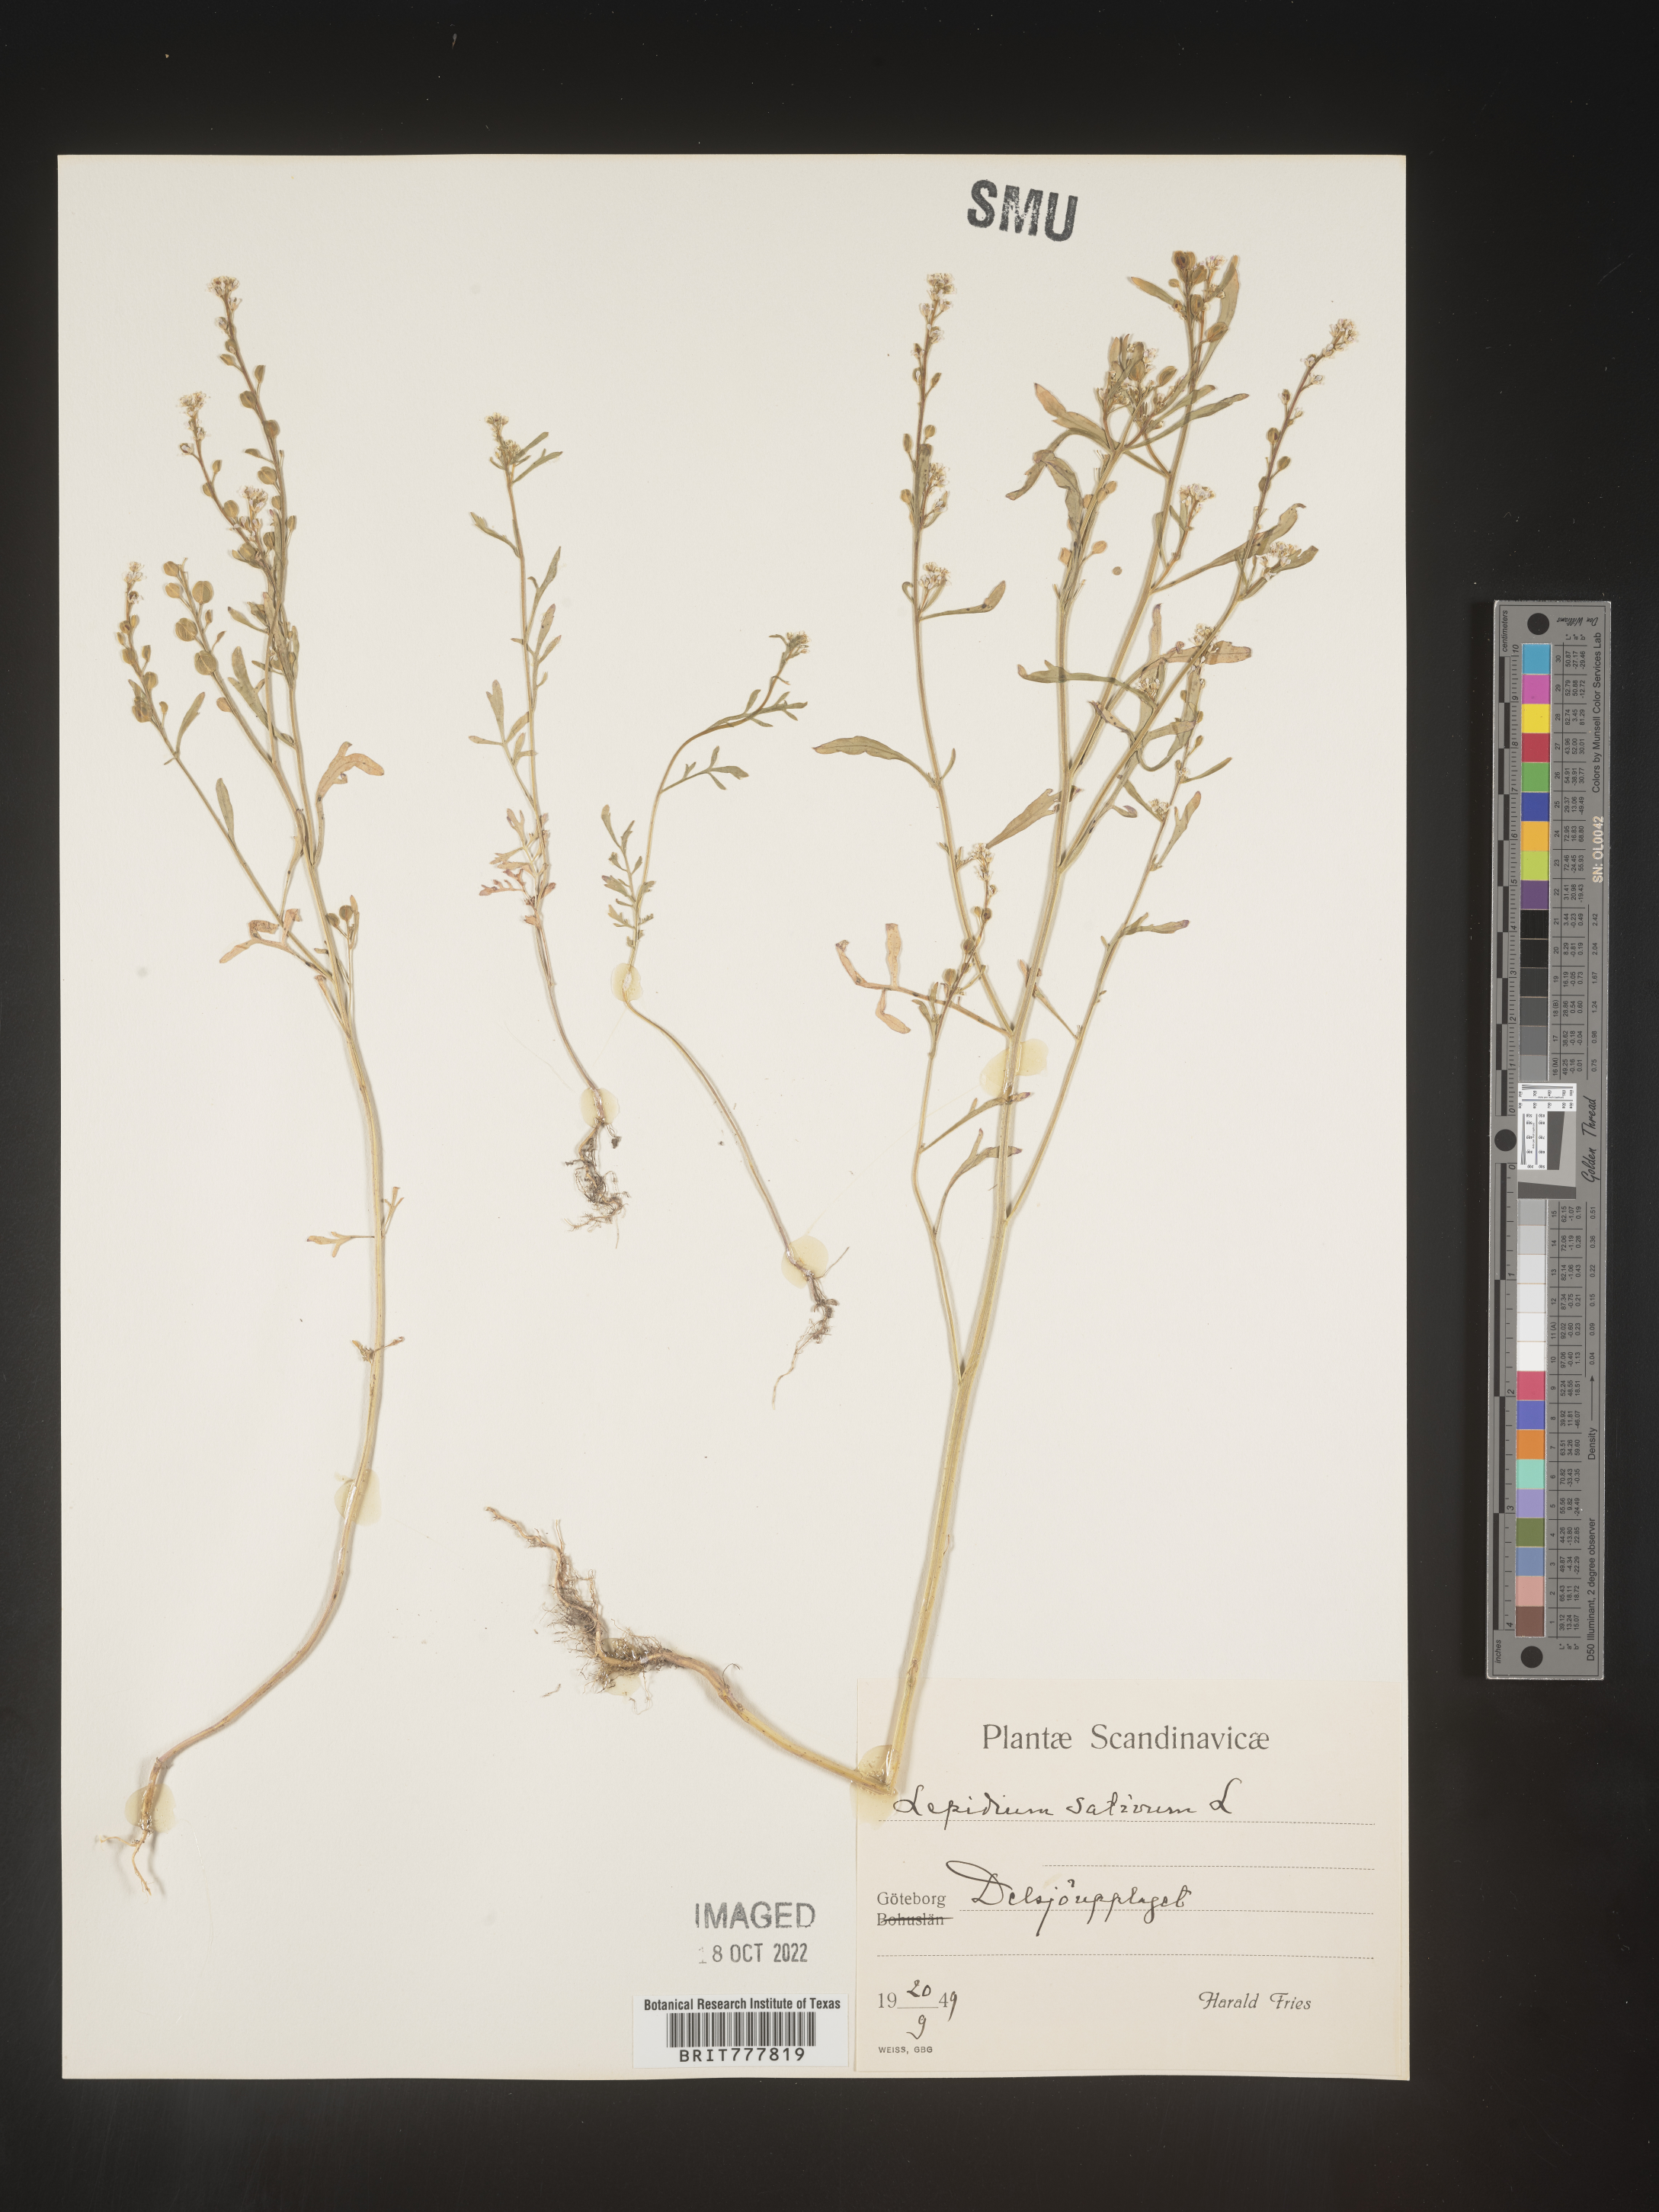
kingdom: Plantae
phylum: Tracheophyta
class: Magnoliopsida
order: Brassicales
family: Brassicaceae
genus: Lepidium
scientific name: Lepidium
